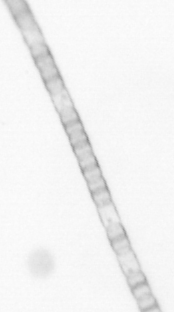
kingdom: Chromista
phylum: Ochrophyta
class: Bacillariophyceae
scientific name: Bacillariophyceae
